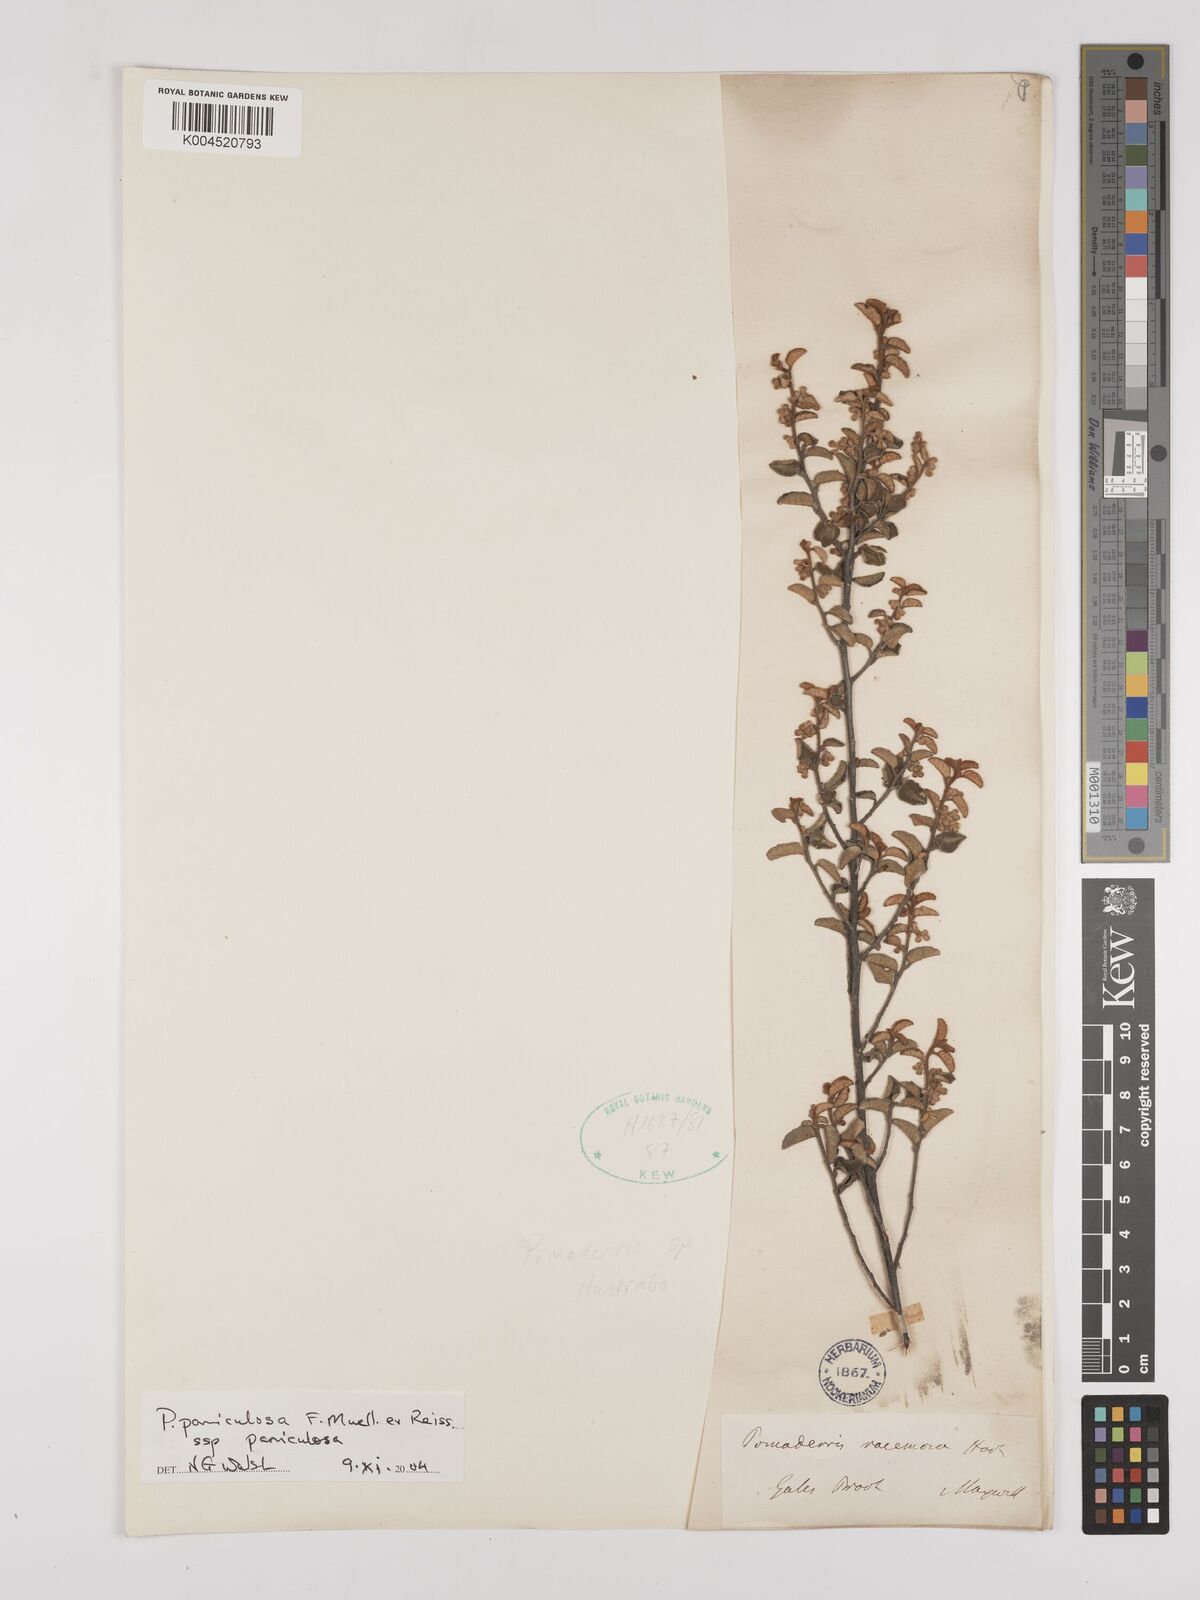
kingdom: Plantae
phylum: Tracheophyta
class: Magnoliopsida
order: Rosales
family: Rhamnaceae
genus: Pomaderris
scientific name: Pomaderris paniculosa
